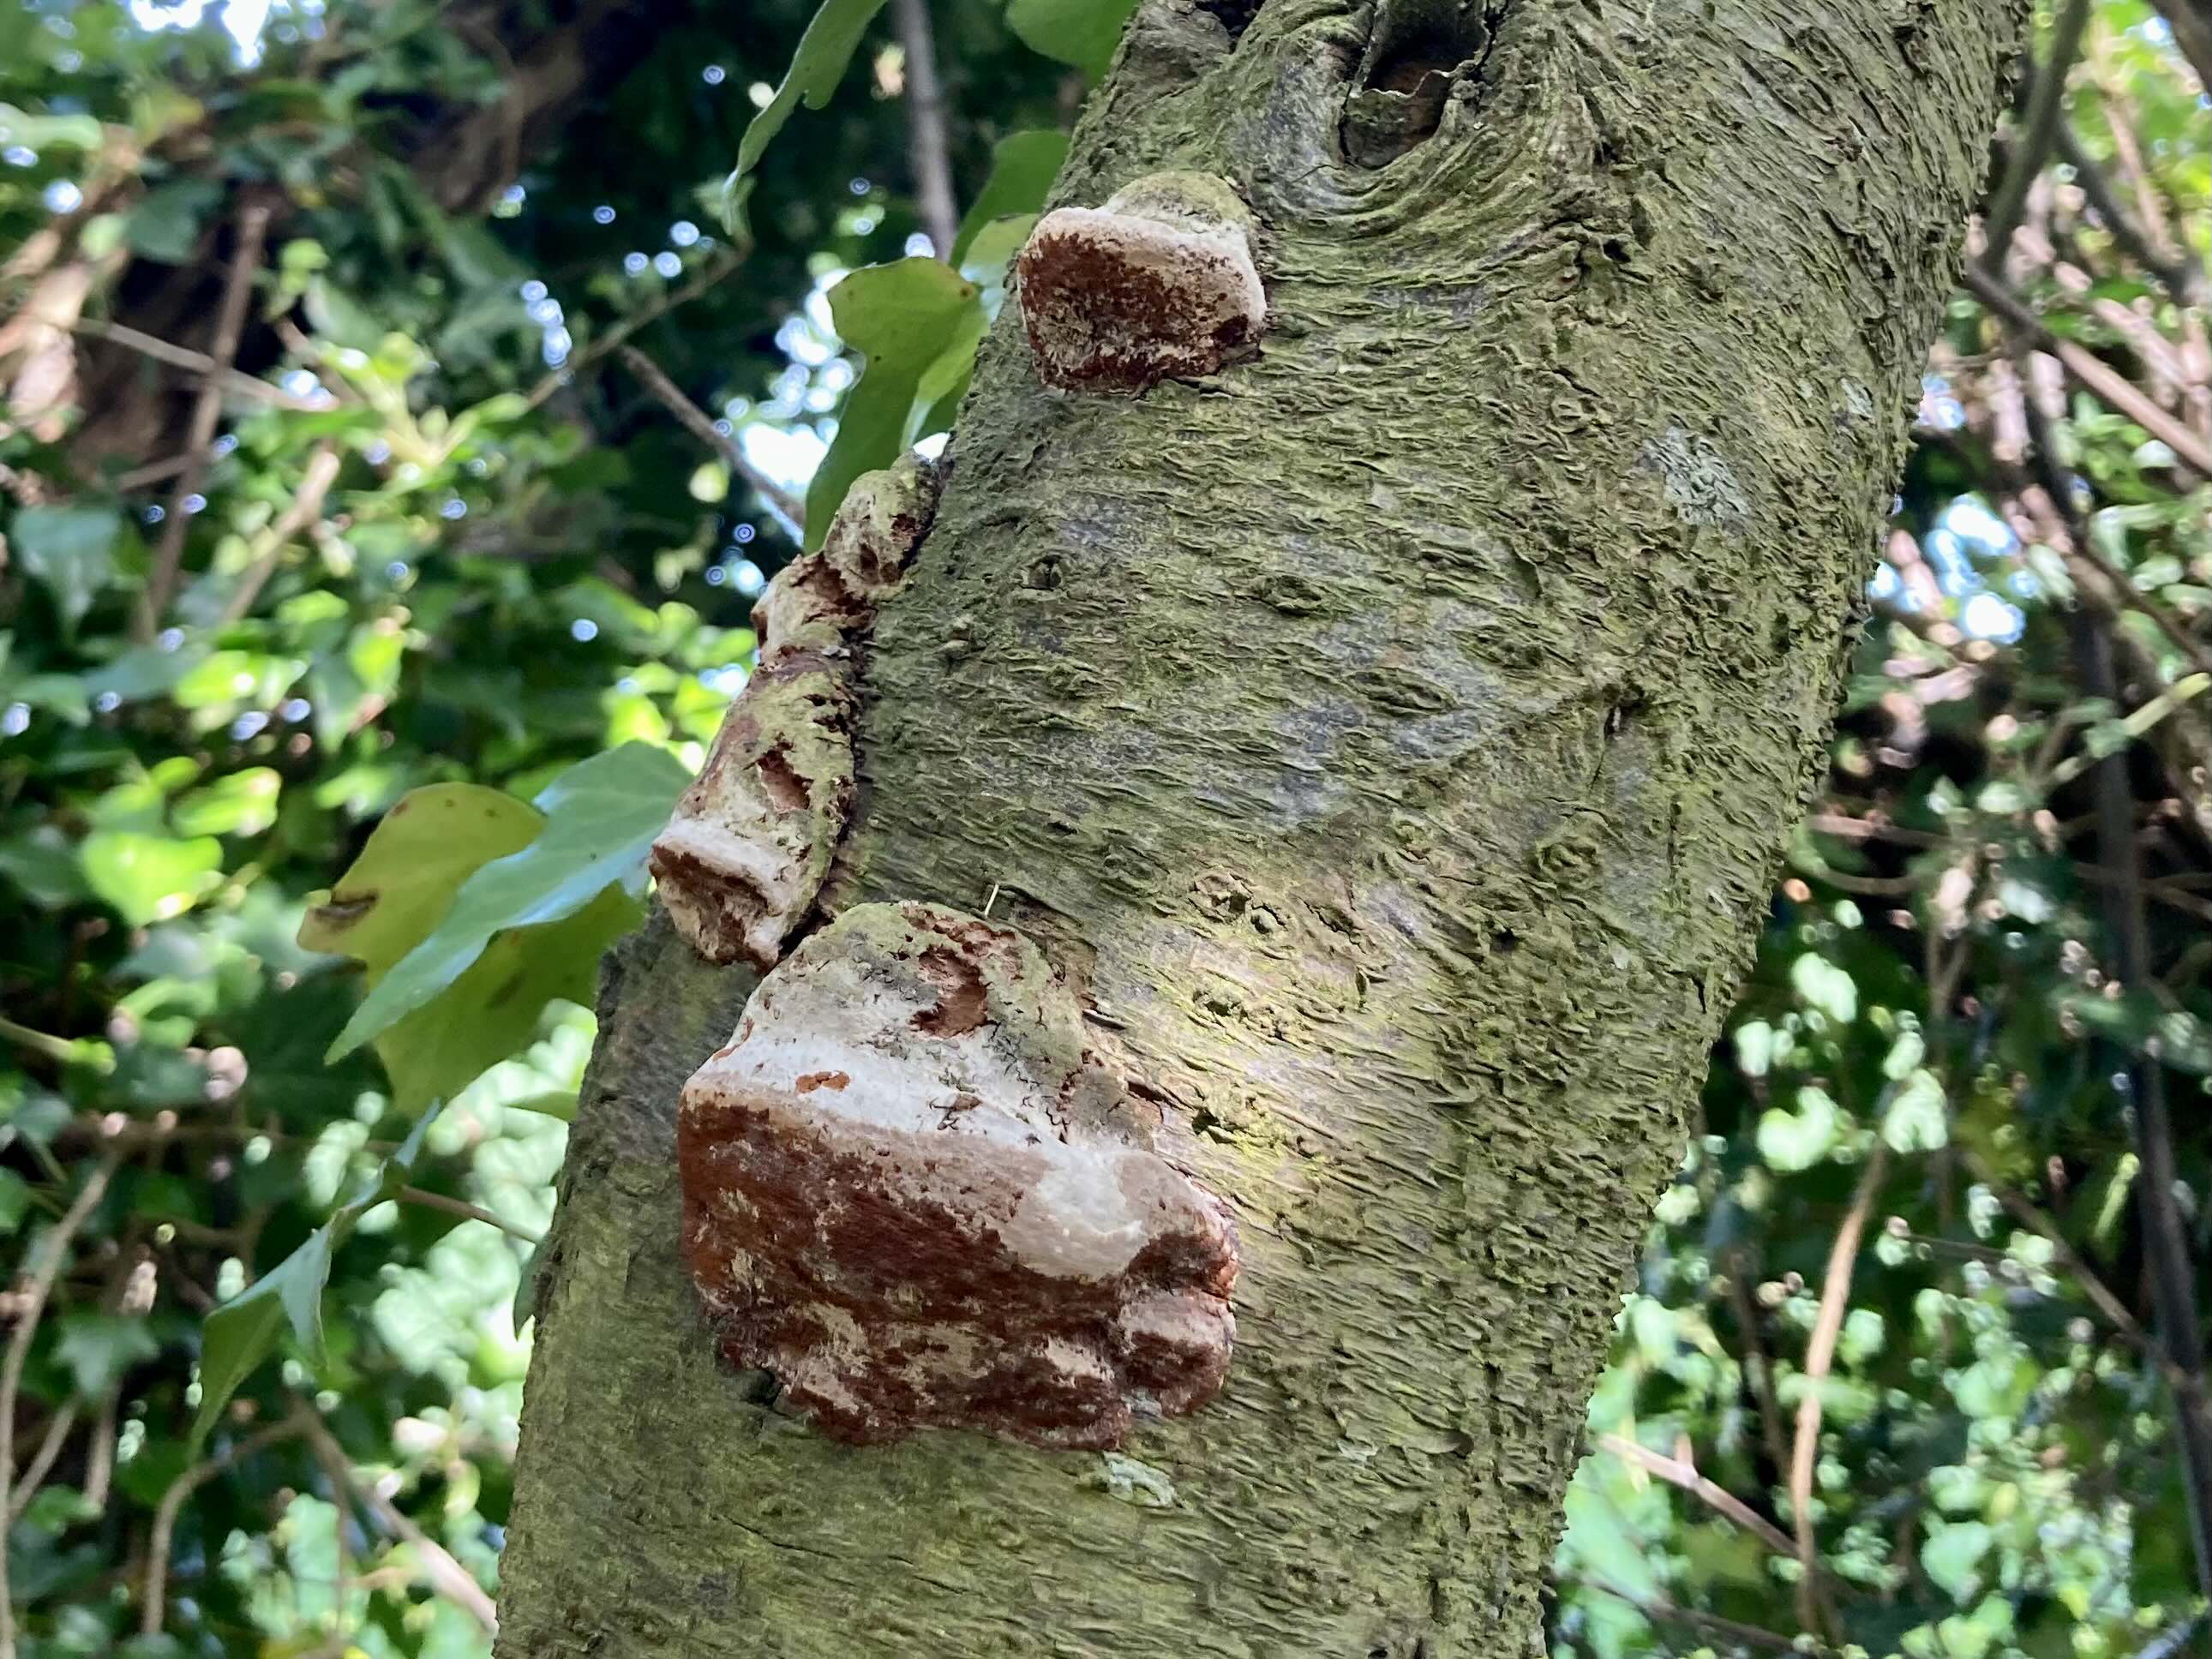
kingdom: Fungi
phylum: Basidiomycota
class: Agaricomycetes
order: Hymenochaetales
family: Hymenochaetaceae
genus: Phellinus
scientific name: Phellinus pomaceus
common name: blomme-ildporesvamp
